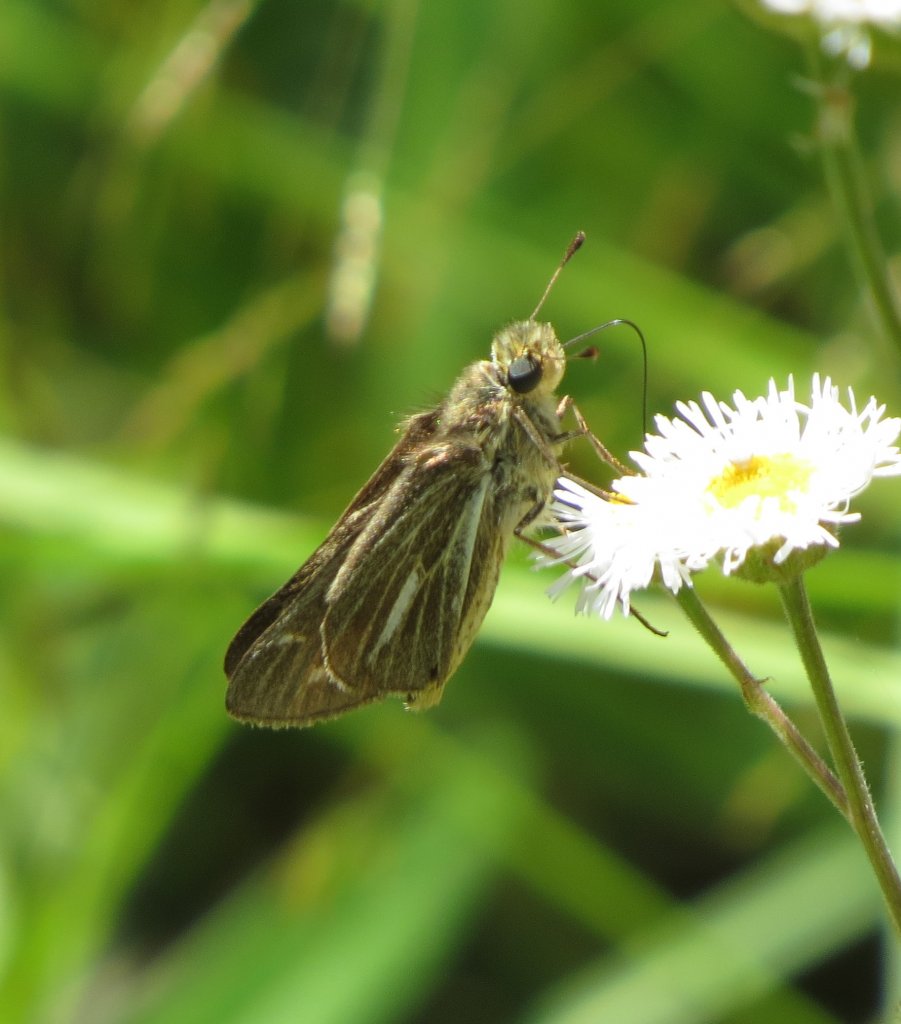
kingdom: Animalia
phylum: Arthropoda
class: Insecta
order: Lepidoptera
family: Hesperiidae
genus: Panoquina
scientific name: Panoquina panoquin
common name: Salt Marsh Skipper
